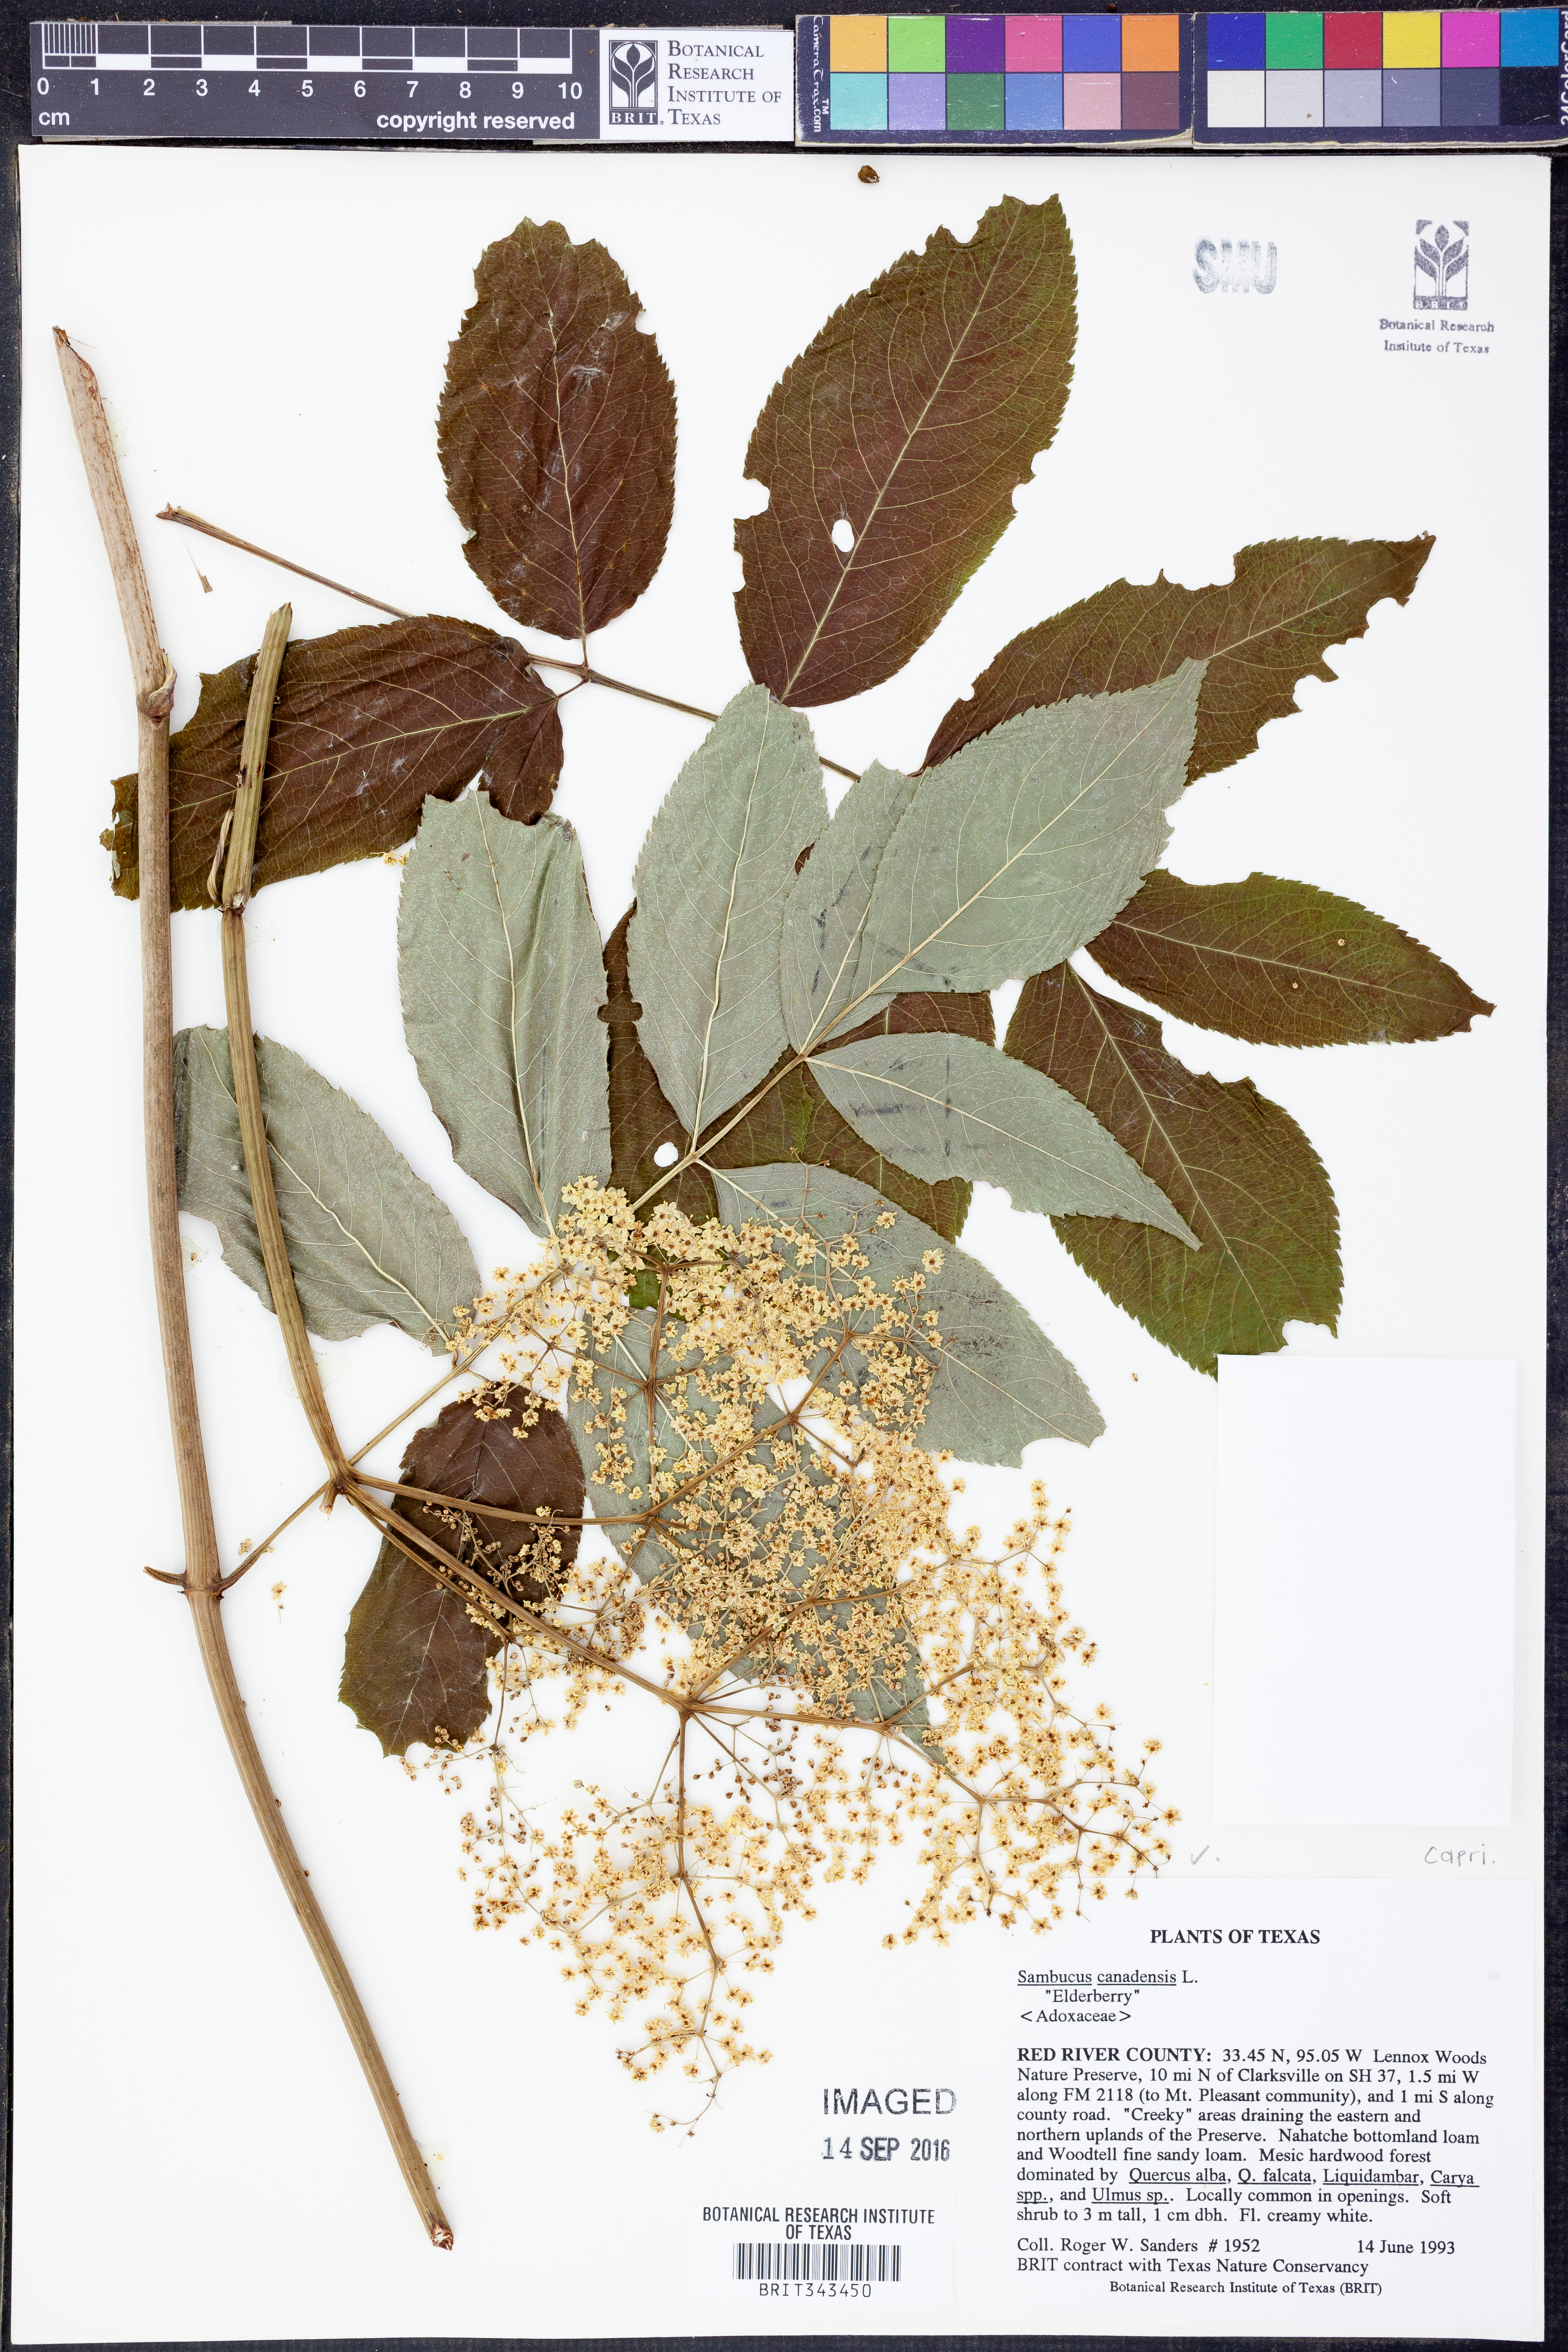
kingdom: Plantae
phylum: Tracheophyta
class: Magnoliopsida
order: Dipsacales
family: Viburnaceae
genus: Sambucus
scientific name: Sambucus canadensis
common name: American elder
